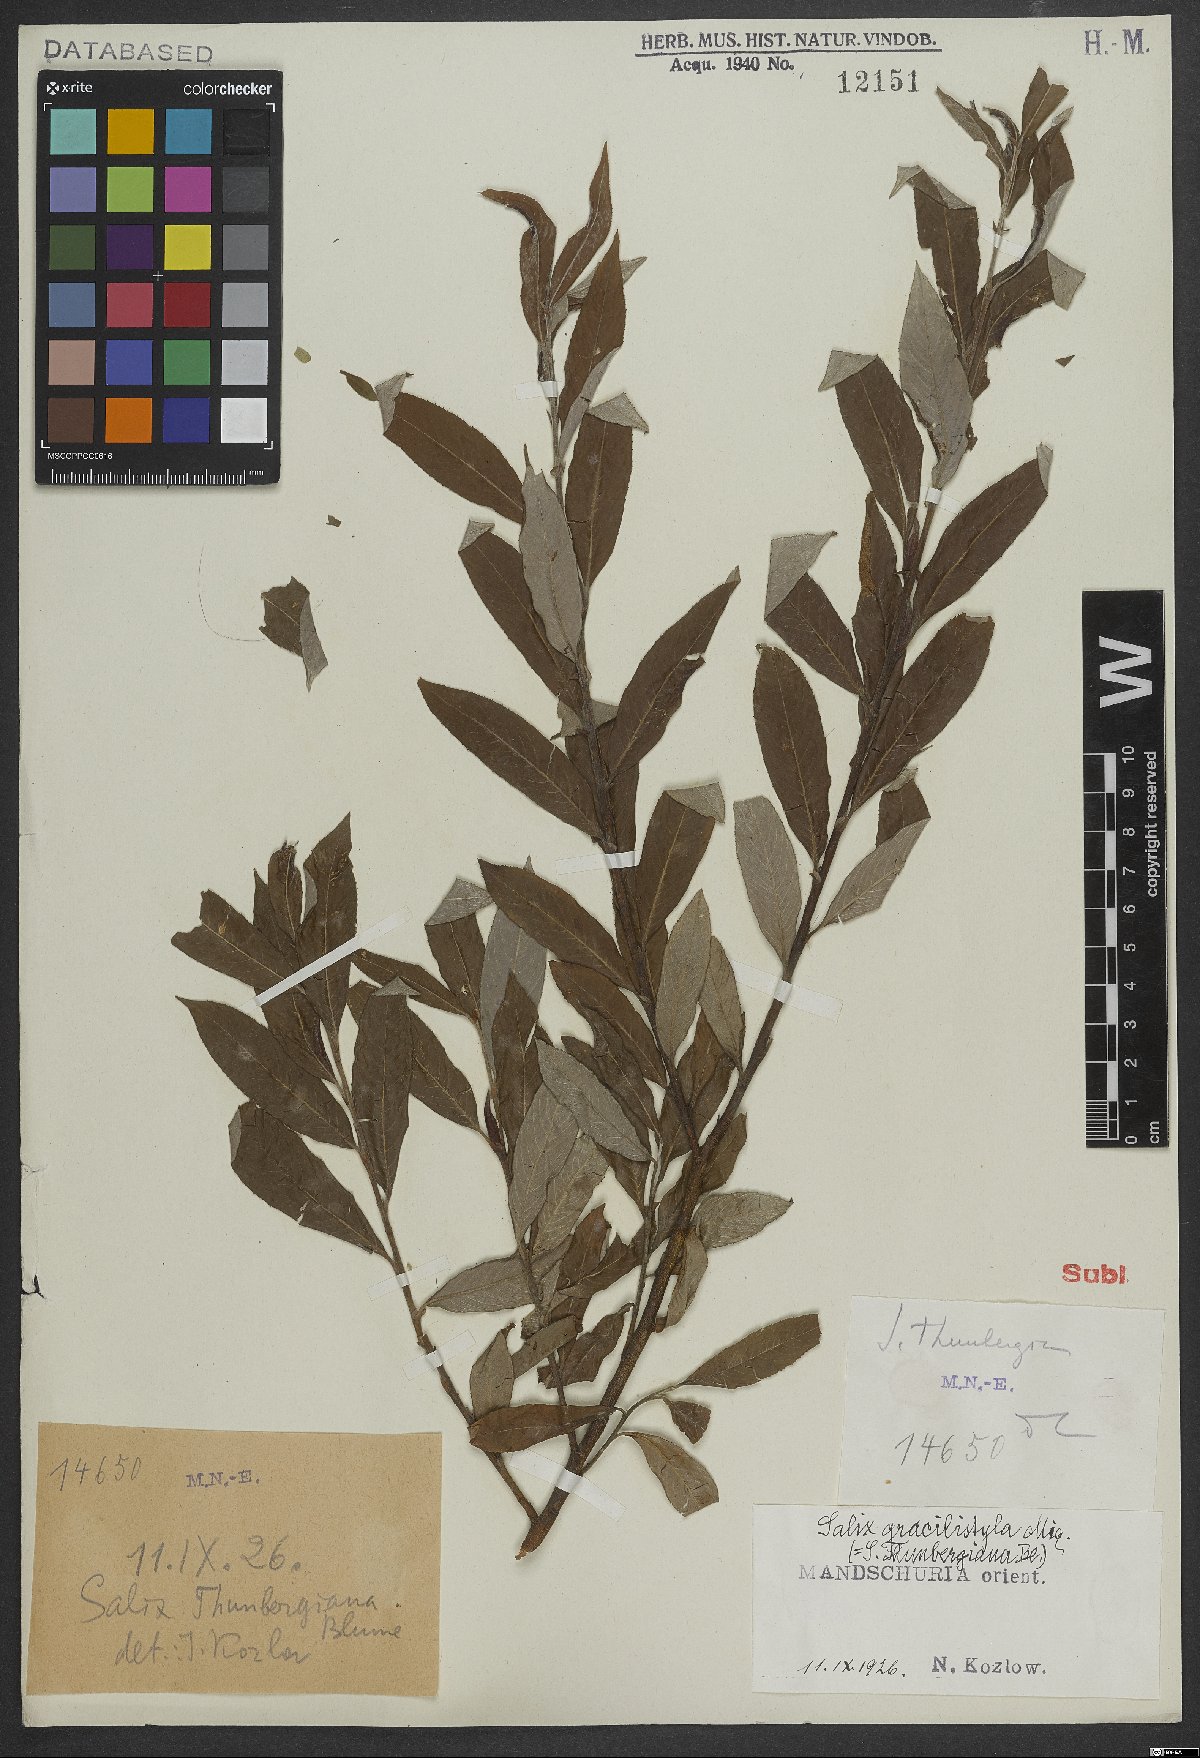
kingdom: Plantae
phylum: Tracheophyta
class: Magnoliopsida
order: Malpighiales
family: Salicaceae
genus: Salix
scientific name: Salix gracilistyla
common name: Rose-gold pussy willow
